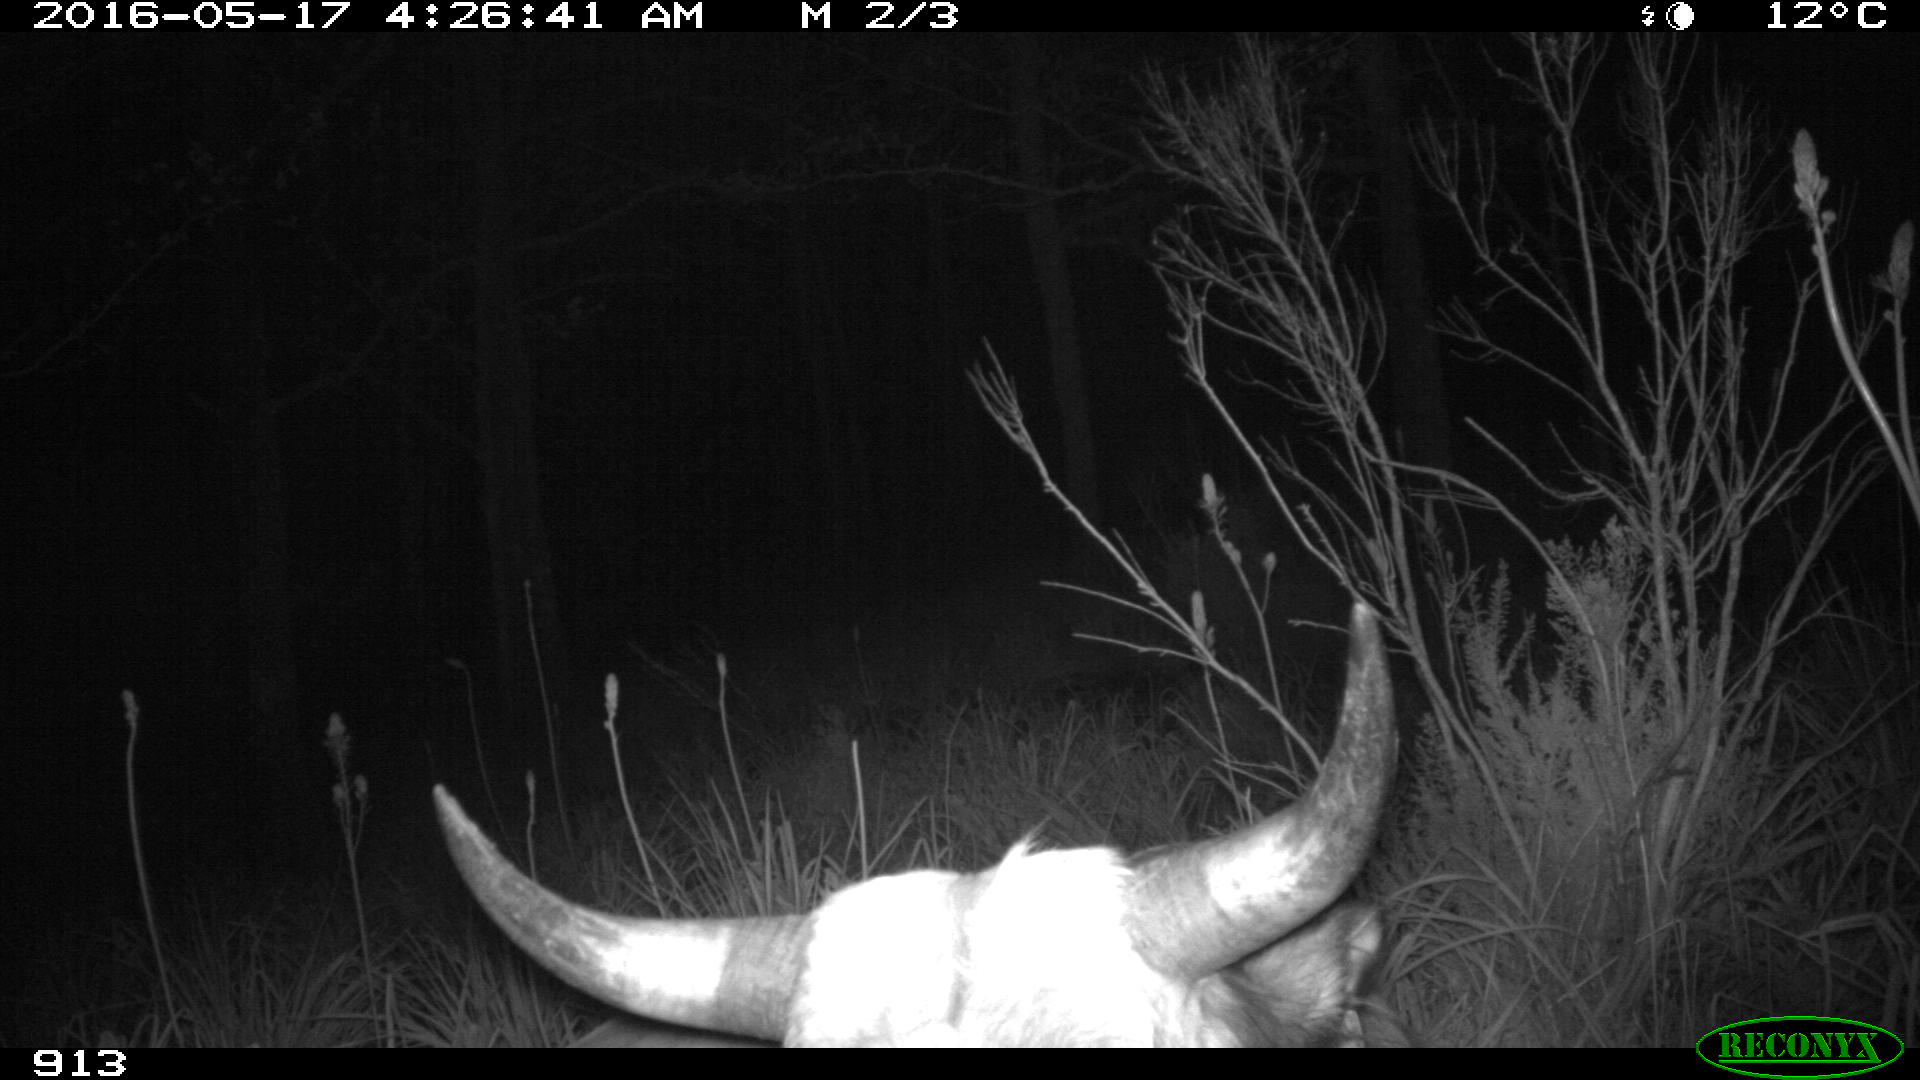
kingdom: Animalia
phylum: Chordata
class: Mammalia
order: Artiodactyla
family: Bovidae
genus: Bos
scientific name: Bos taurus
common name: Domesticated cattle
